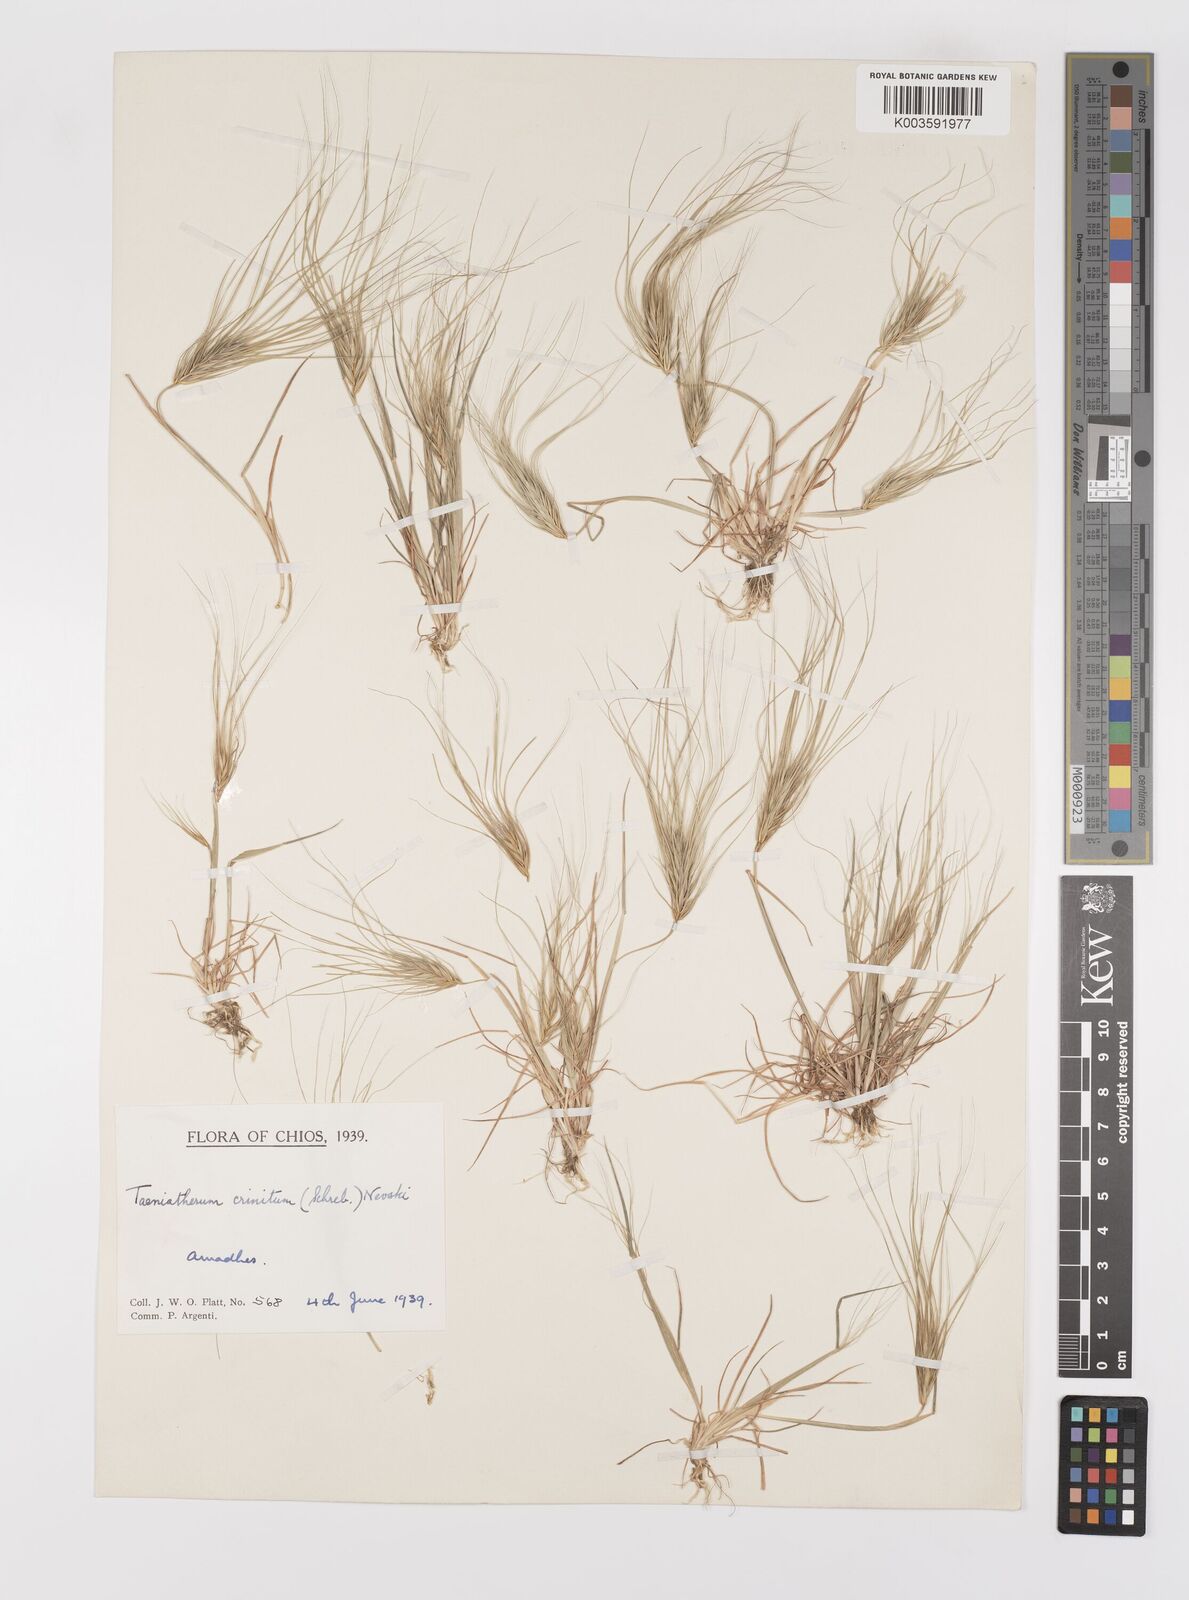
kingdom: Plantae
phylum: Tracheophyta
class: Liliopsida
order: Poales
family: Poaceae
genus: Taeniatherum
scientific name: Taeniatherum caput-medusae
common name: Medusahead
